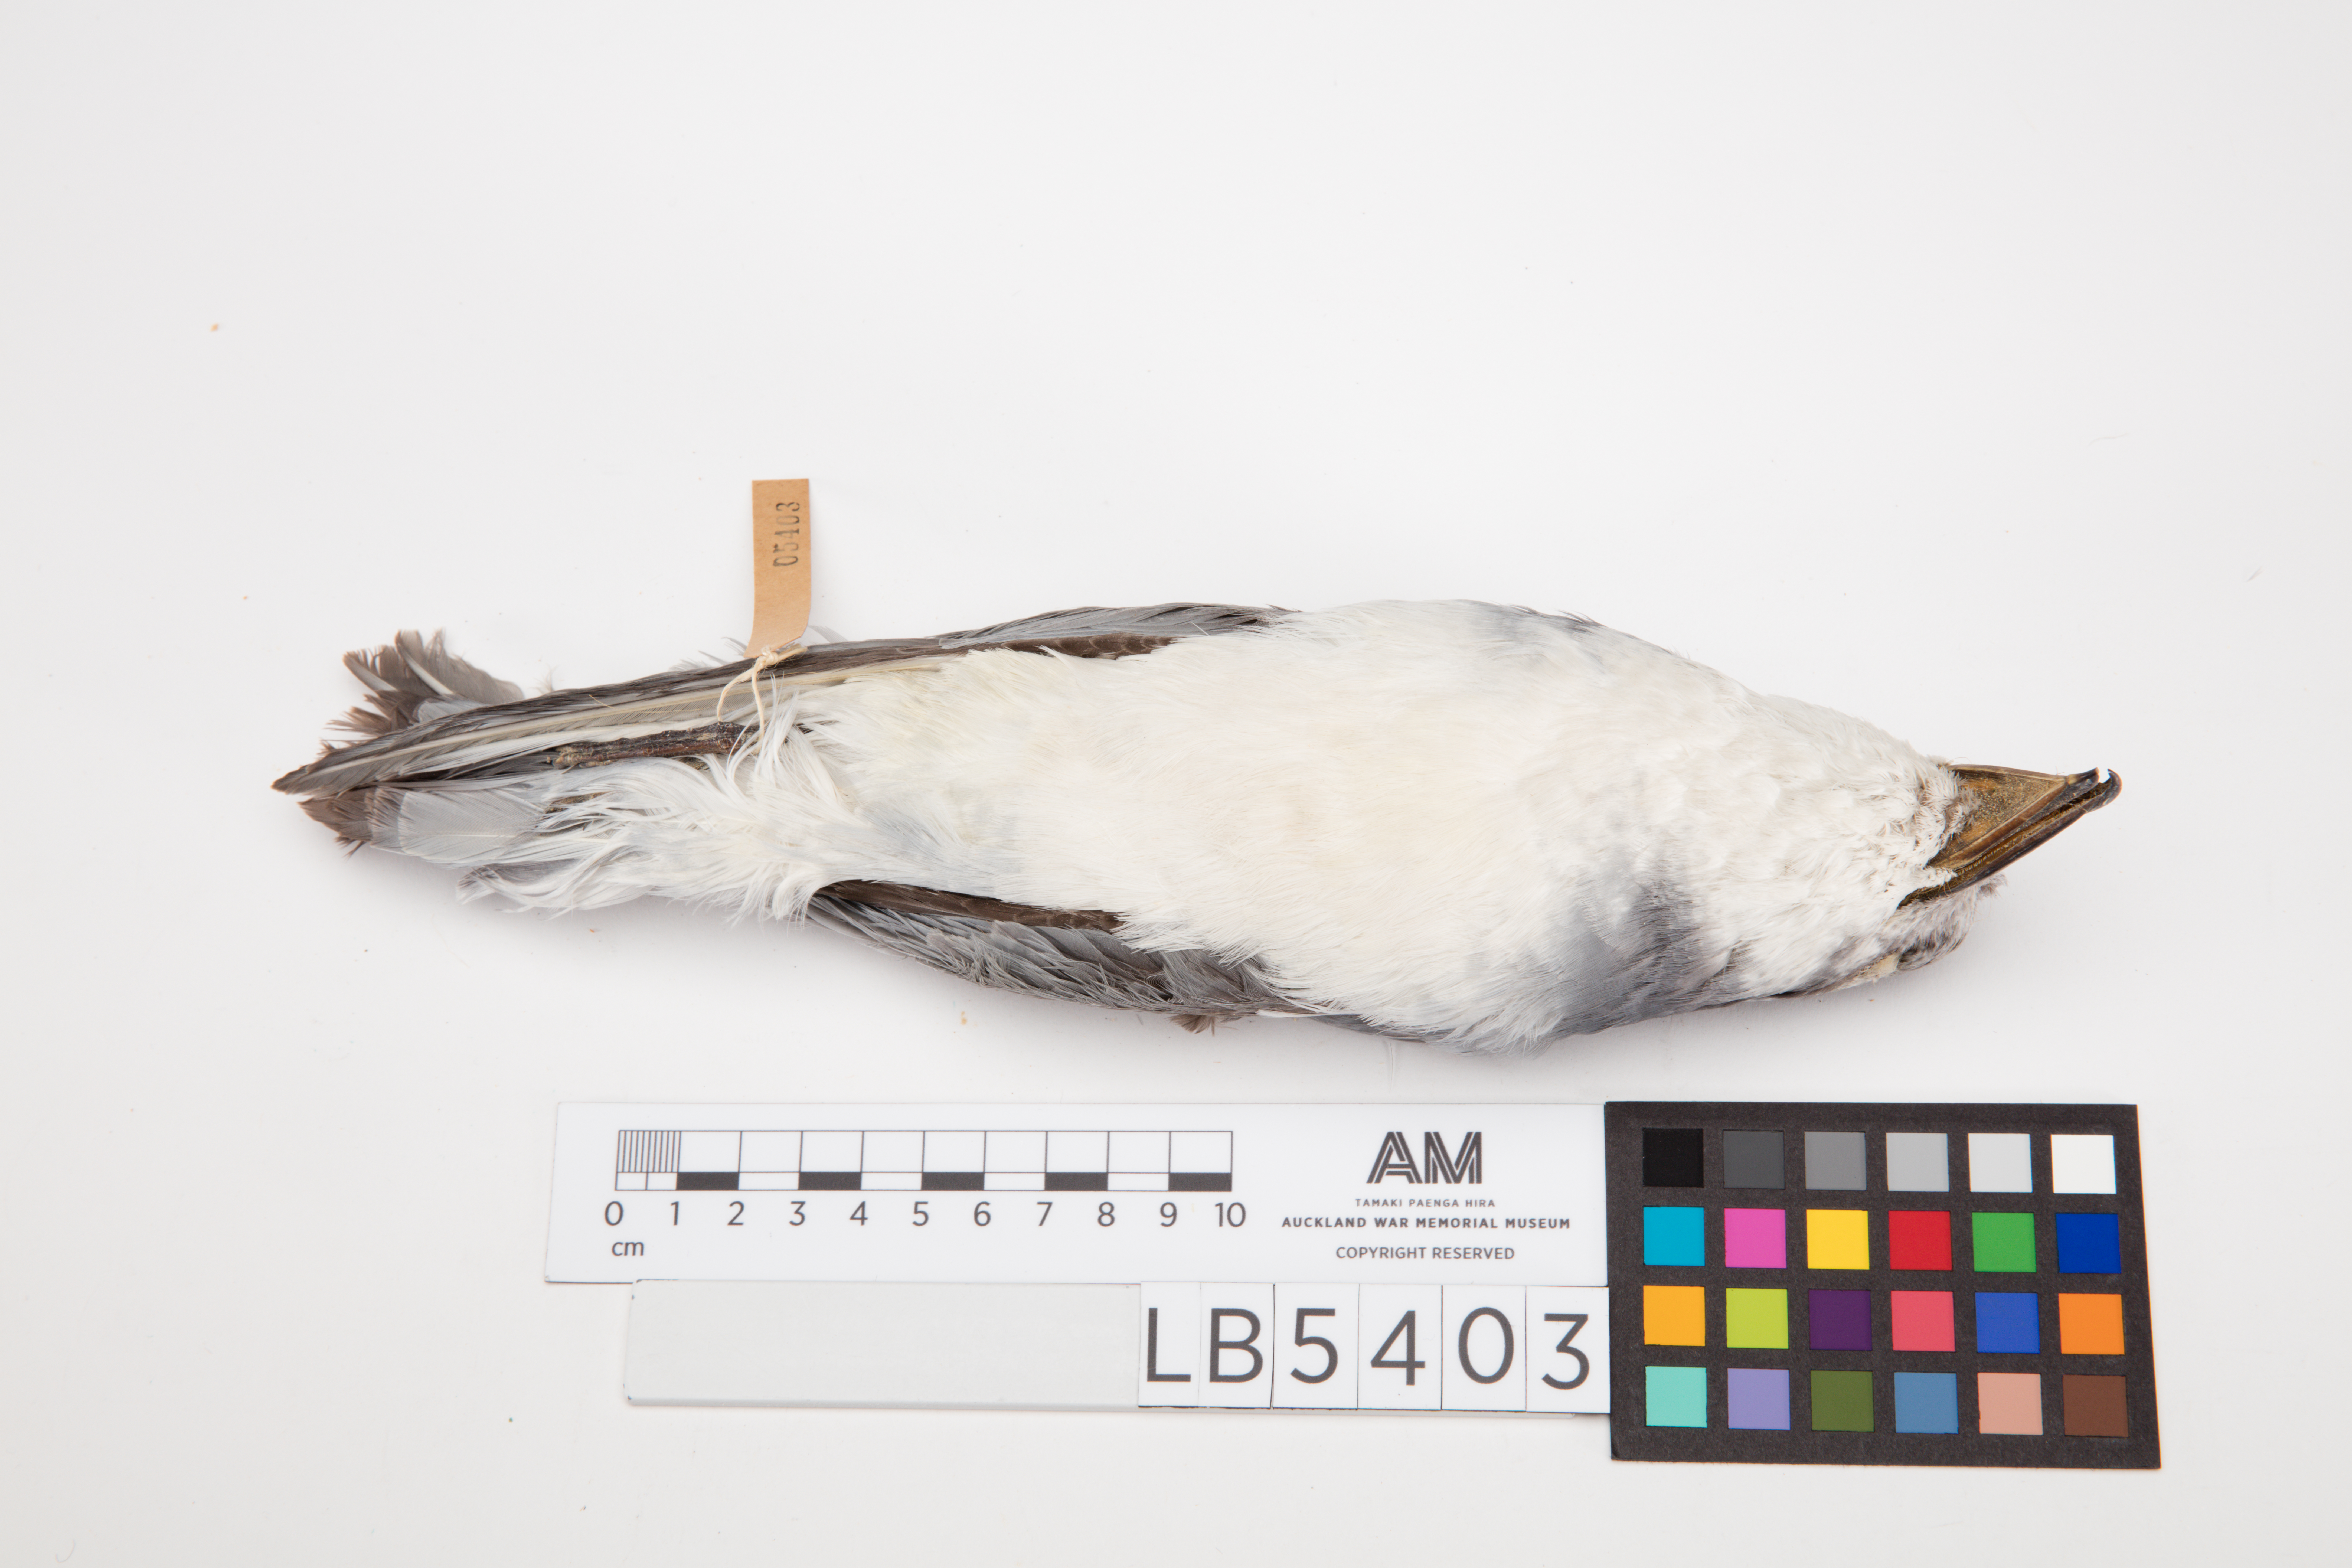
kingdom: Animalia
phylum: Chordata
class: Aves
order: Procellariiformes
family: Procellariidae
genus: Pachyptila
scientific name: Pachyptila vittata
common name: Broad-billed prion
